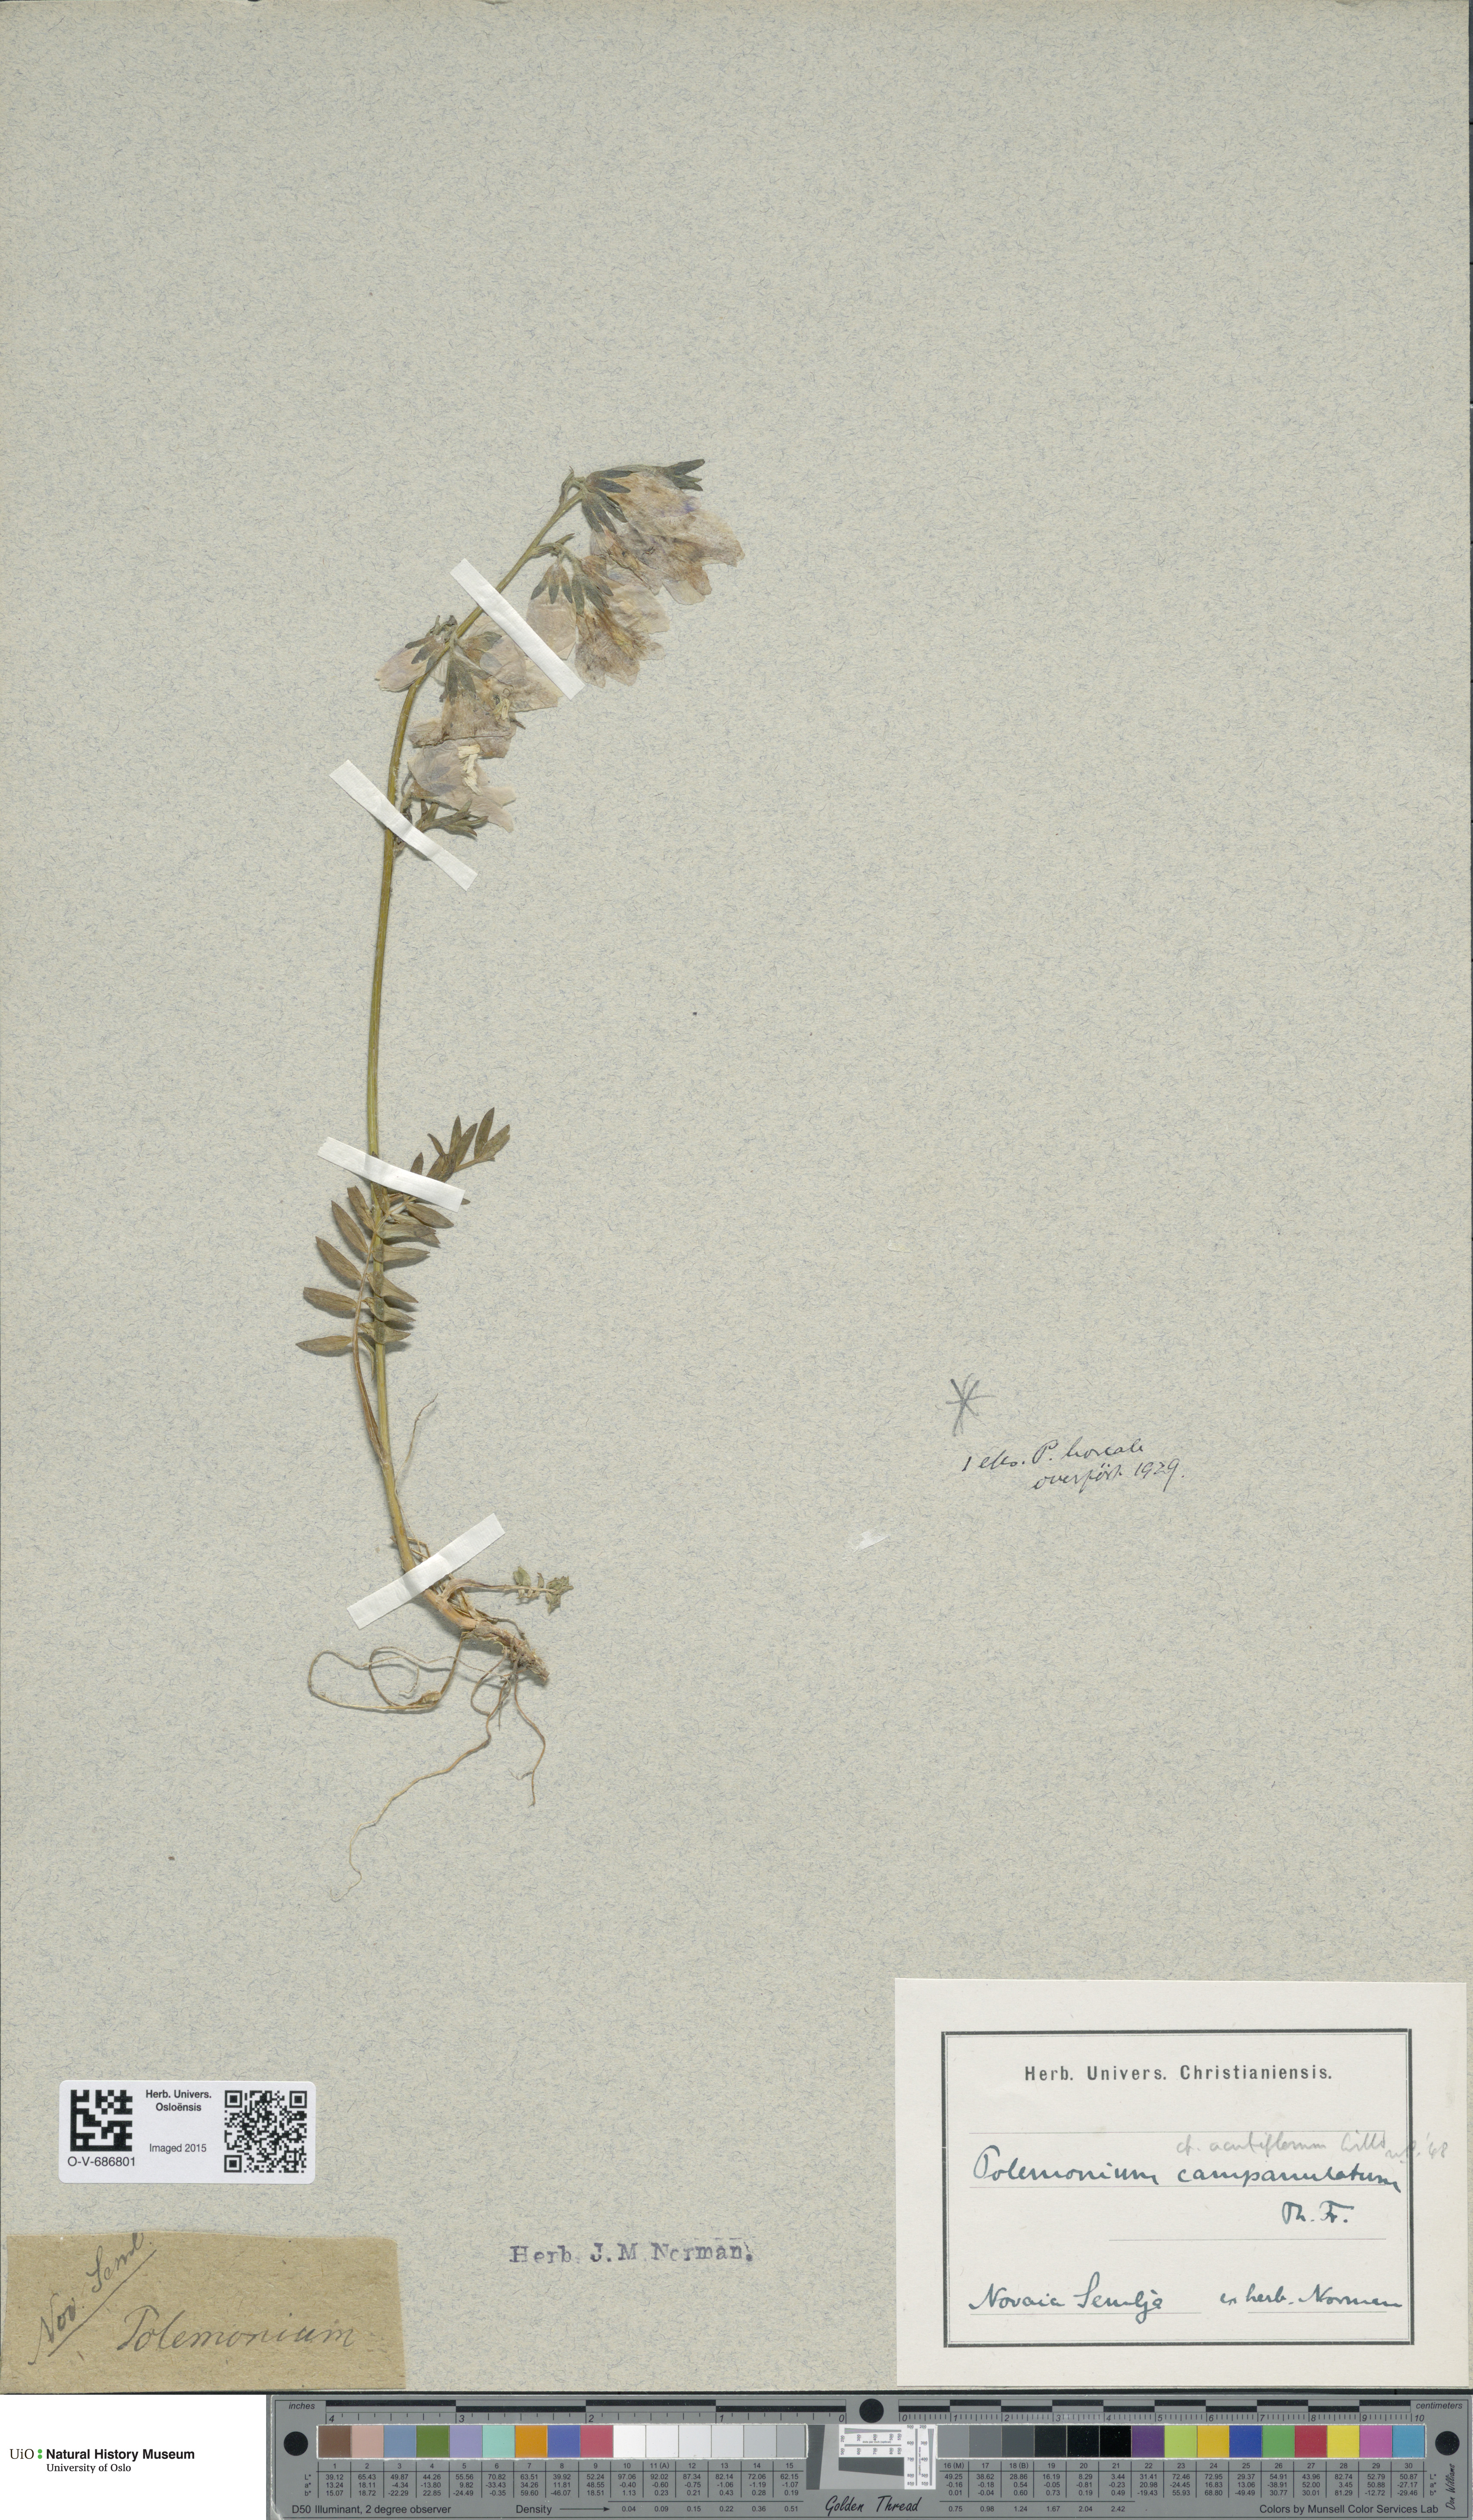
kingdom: Plantae
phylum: Tracheophyta
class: Magnoliopsida
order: Ericales
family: Polemoniaceae
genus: Polemonium
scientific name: Polemonium villosum
